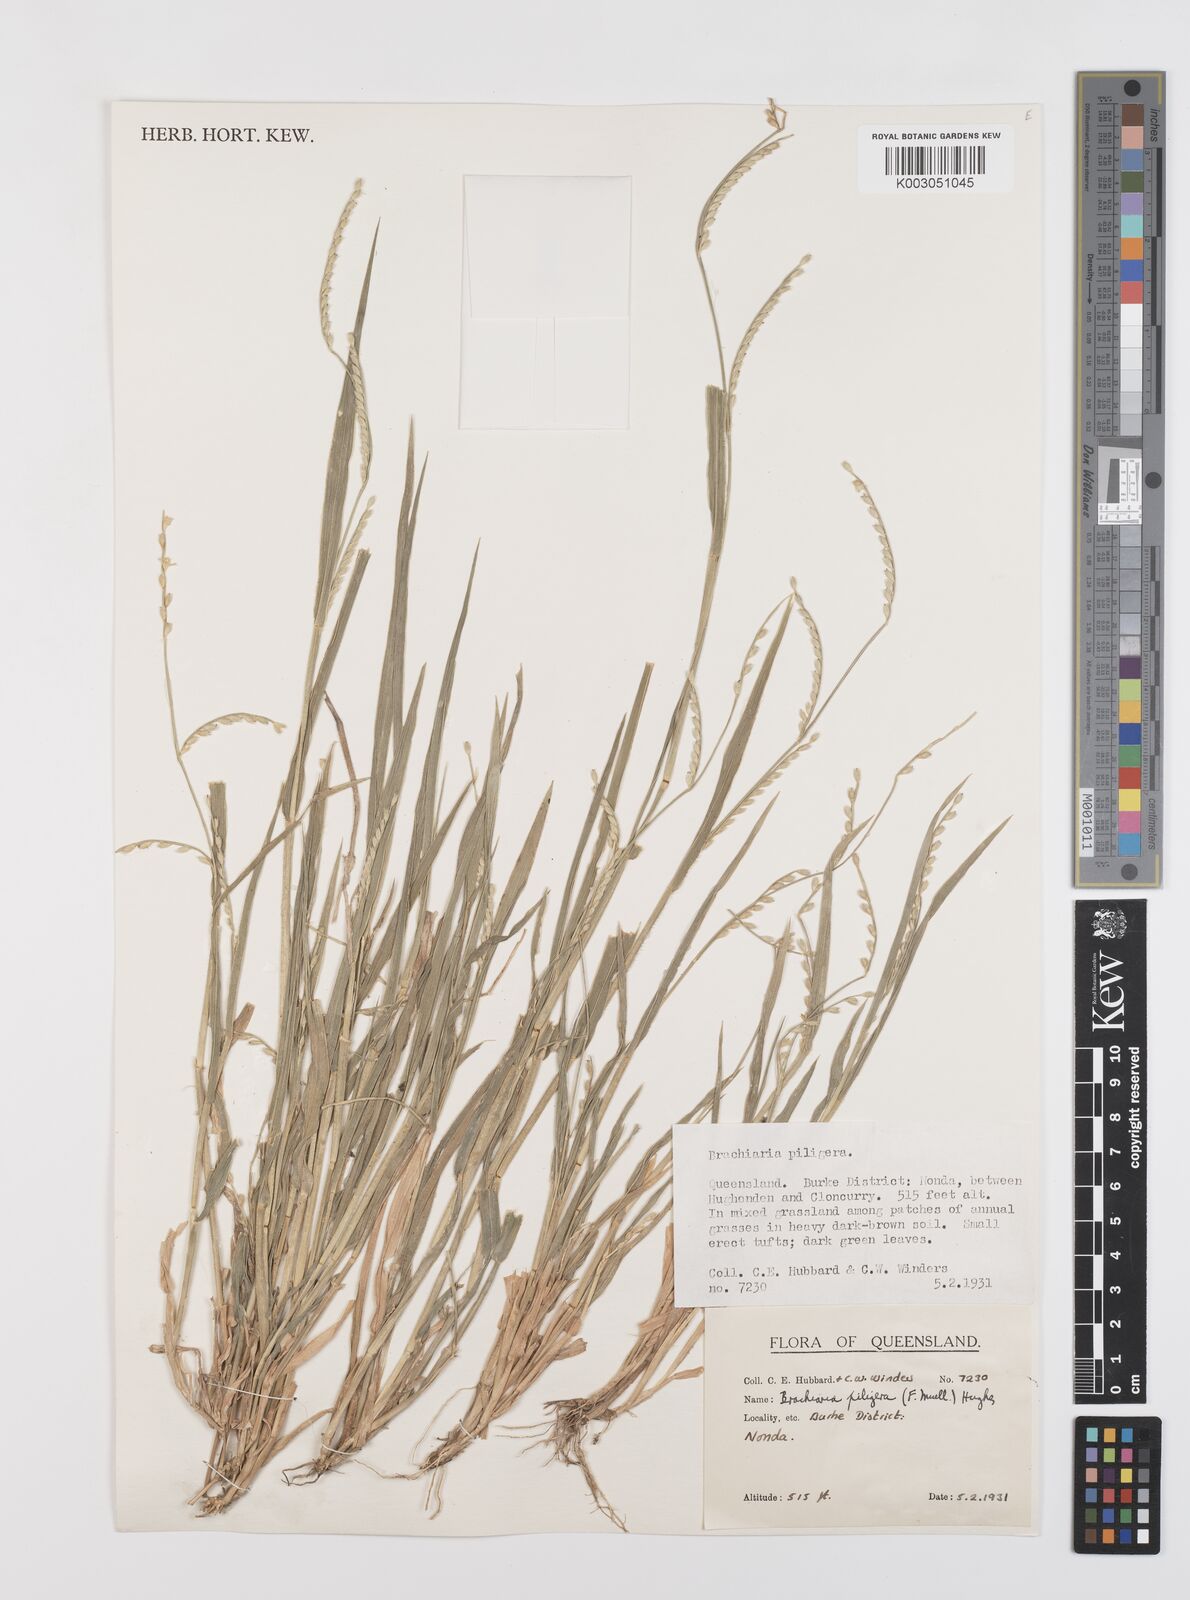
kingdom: Plantae
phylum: Tracheophyta
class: Liliopsida
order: Poales
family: Poaceae
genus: Urochloa
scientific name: Urochloa piligera
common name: Wattle signalgrass
